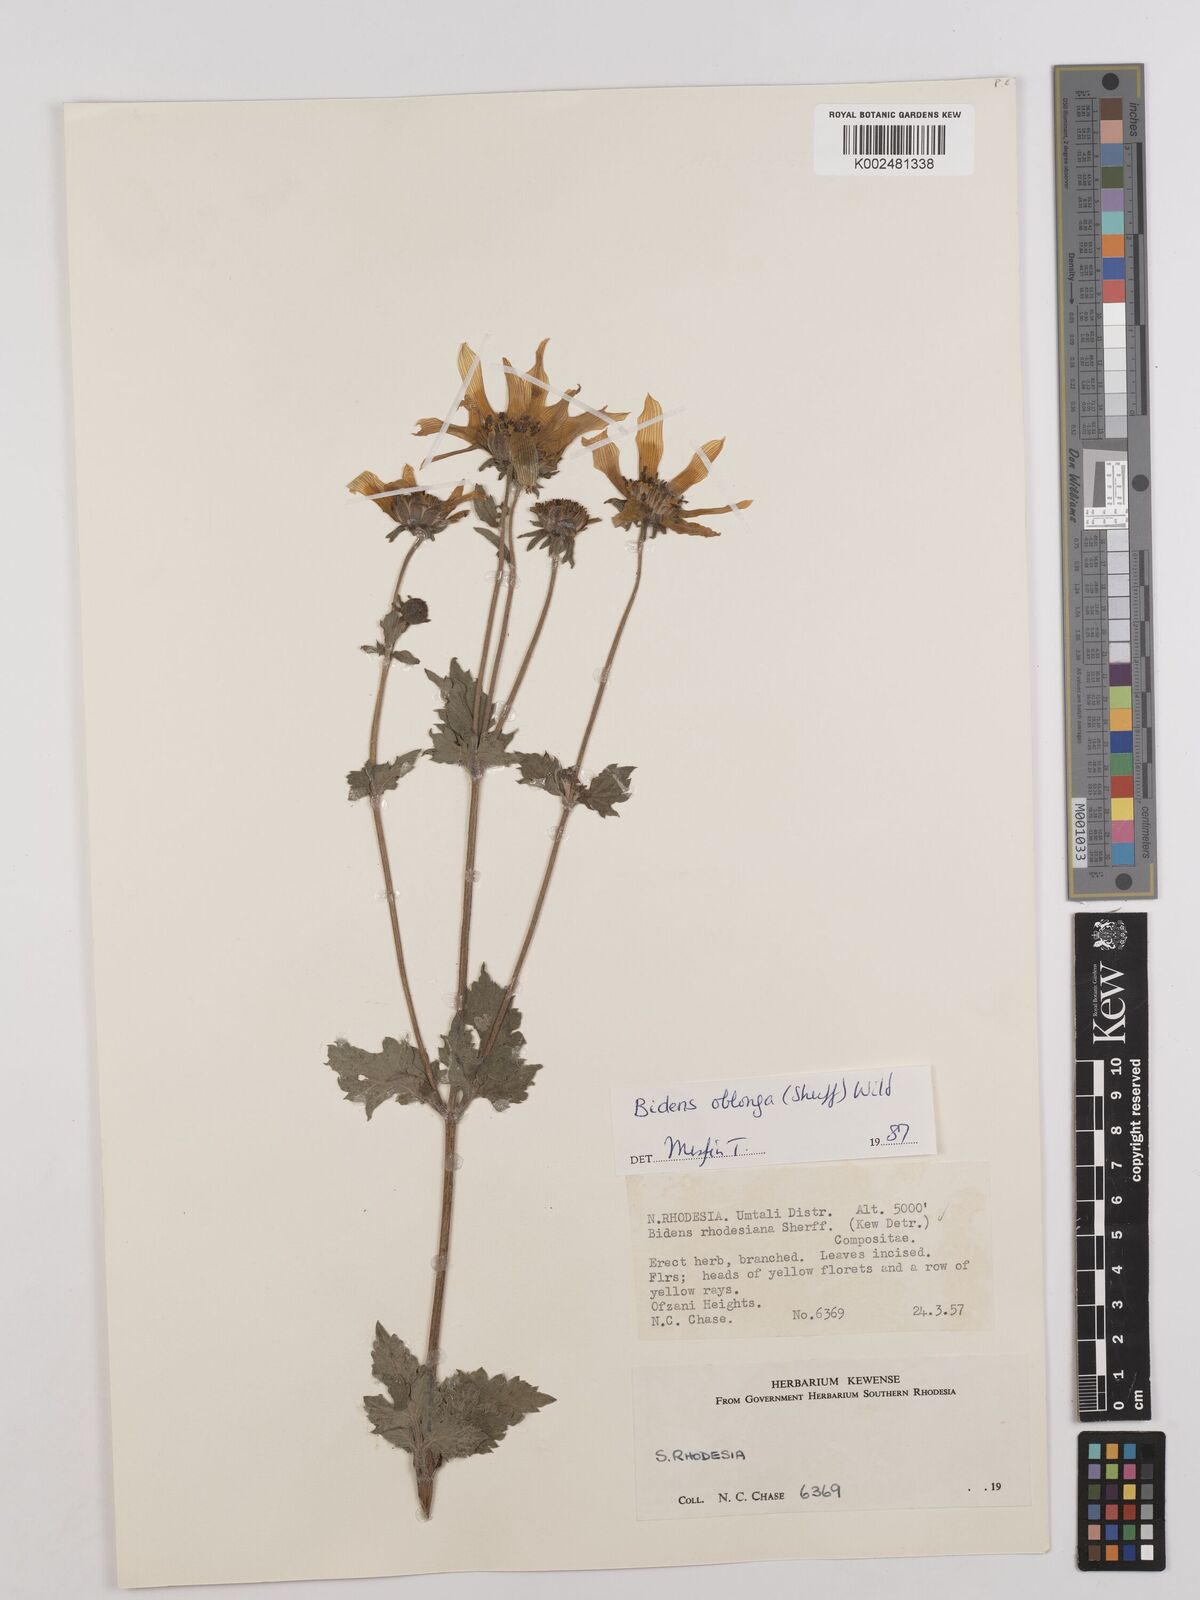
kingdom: Plantae
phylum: Tracheophyta
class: Magnoliopsida
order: Asterales
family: Asteraceae
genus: Bidens
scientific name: Bidens oblonga
